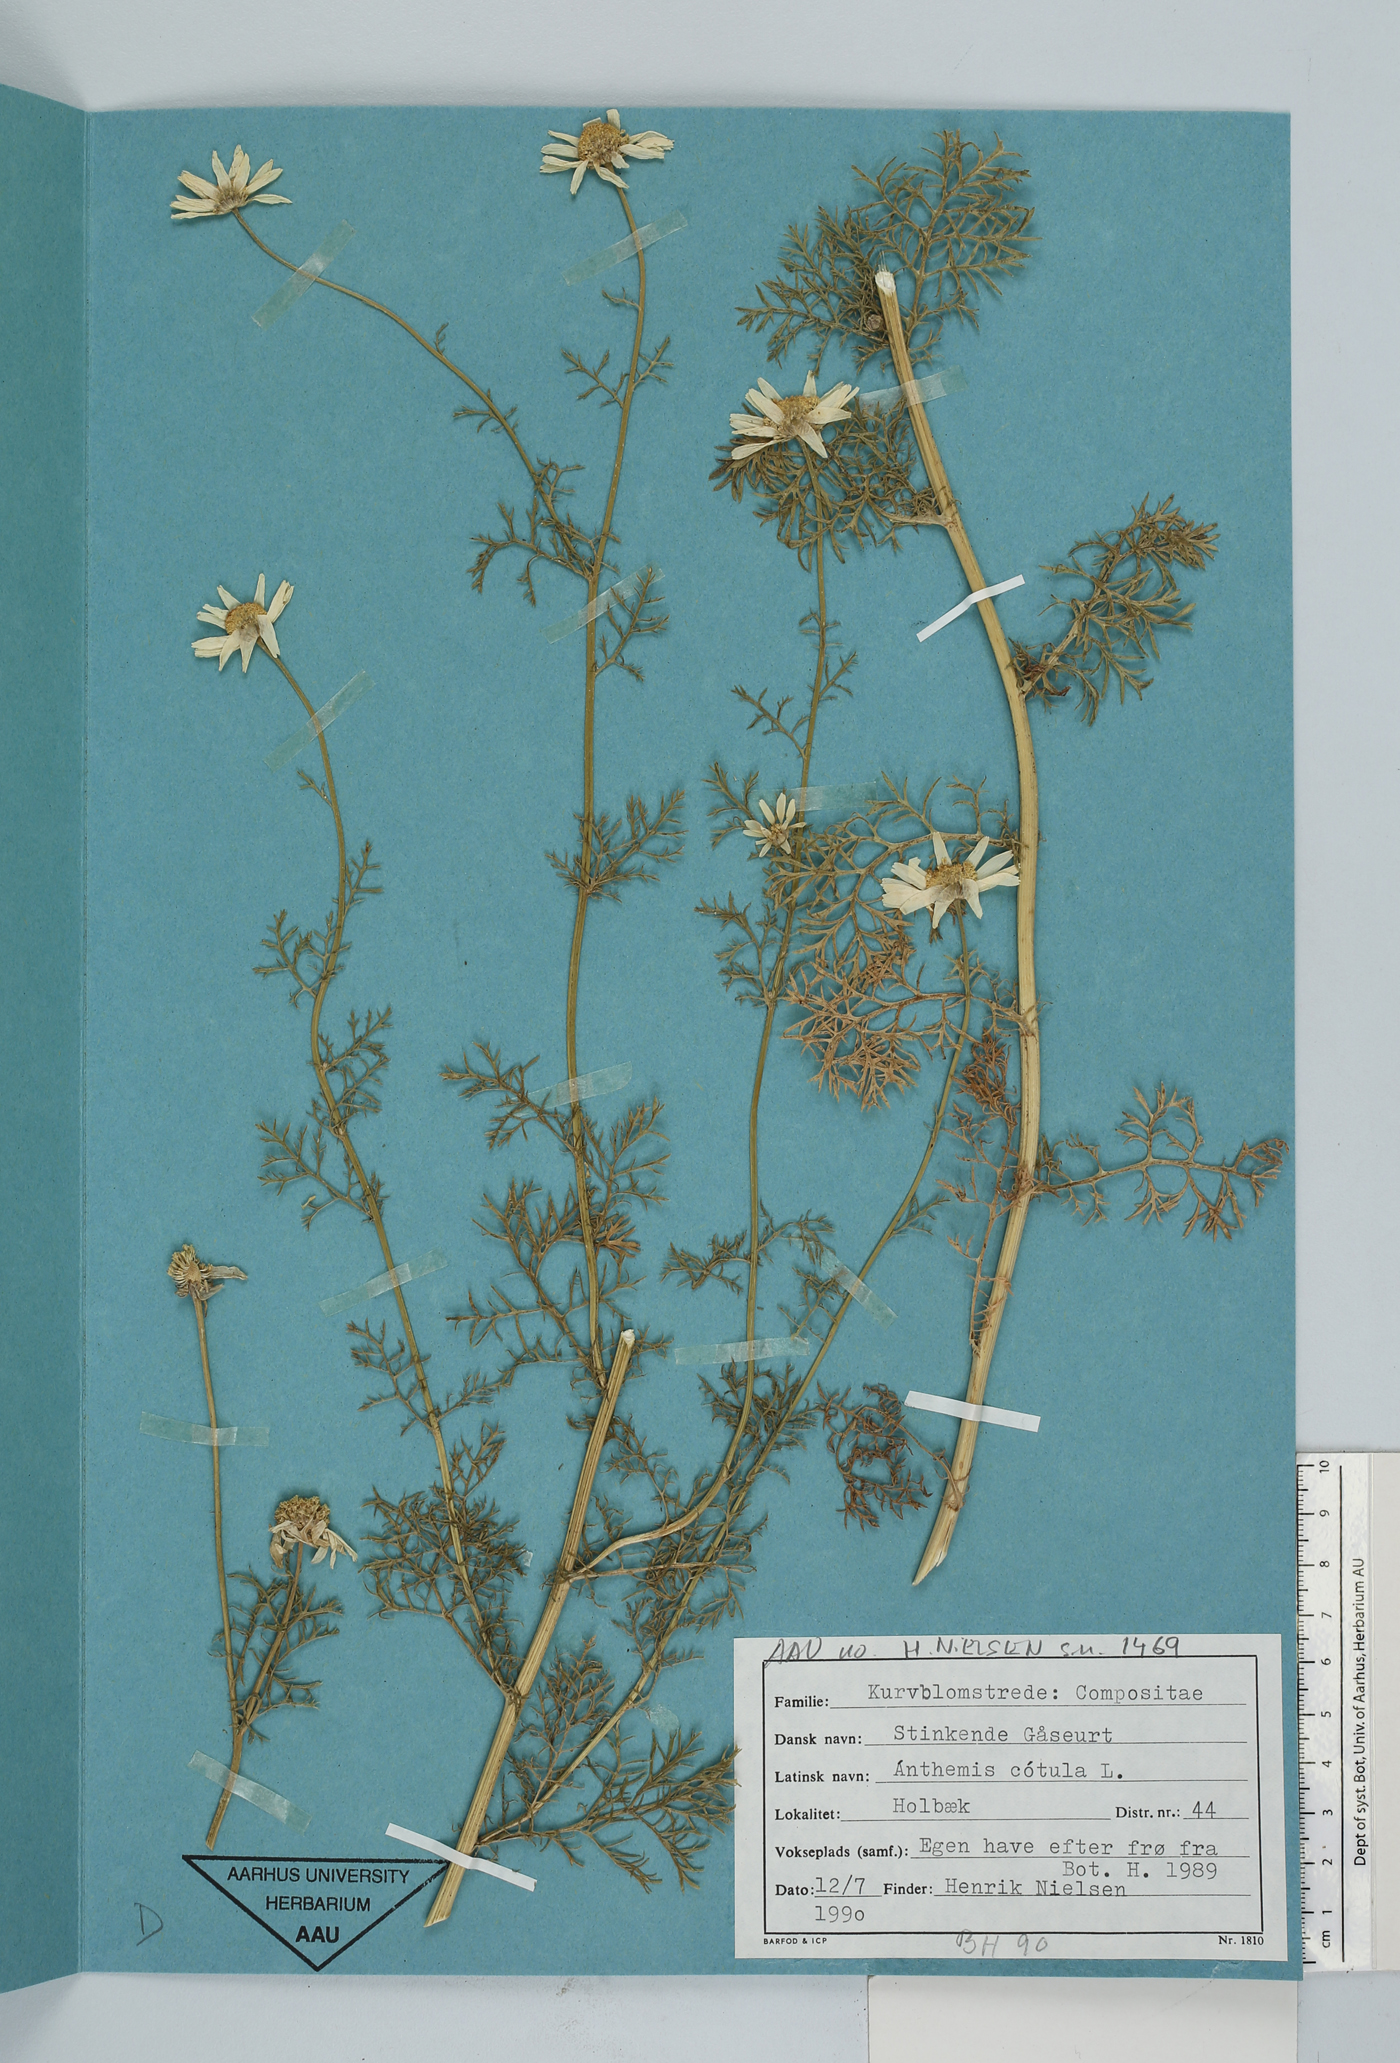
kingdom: Plantae
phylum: Tracheophyta
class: Magnoliopsida
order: Asterales
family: Asteraceae
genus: Anthemis
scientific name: Anthemis cotula
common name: Stinking chamomile
